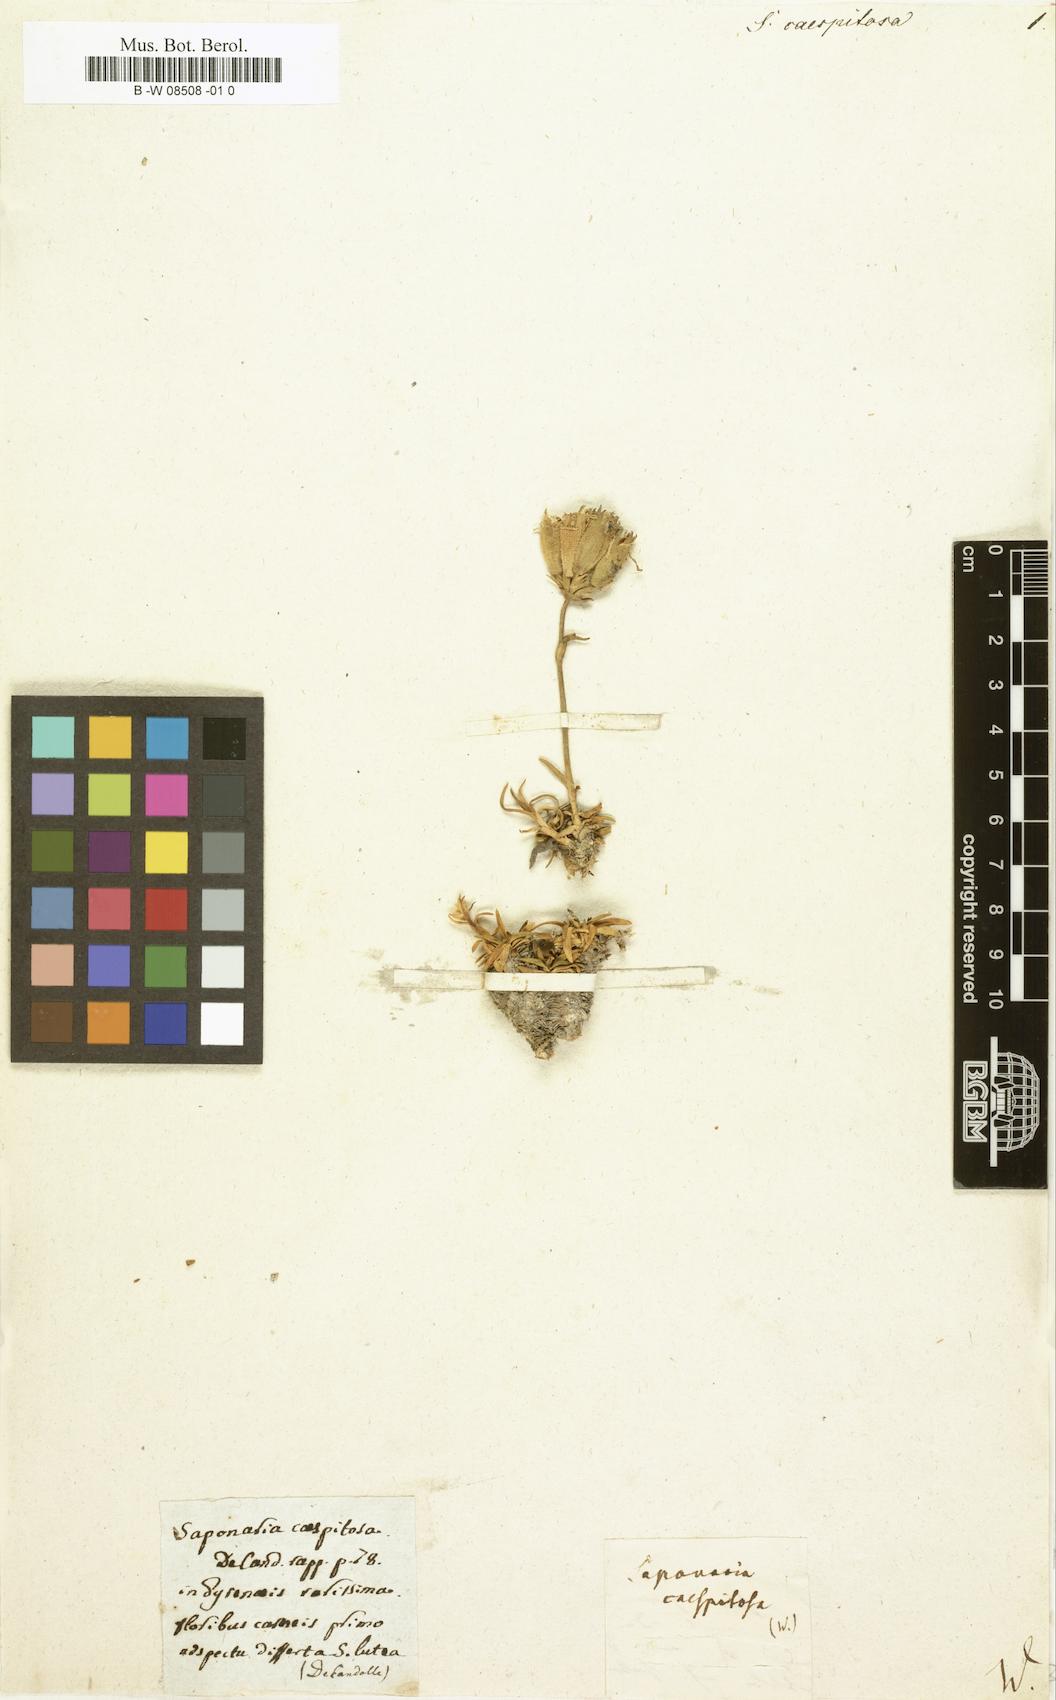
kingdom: Plantae
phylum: Tracheophyta
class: Magnoliopsida
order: Caryophyllales
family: Caryophyllaceae
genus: Saponaria
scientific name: Saponaria caespitosa
